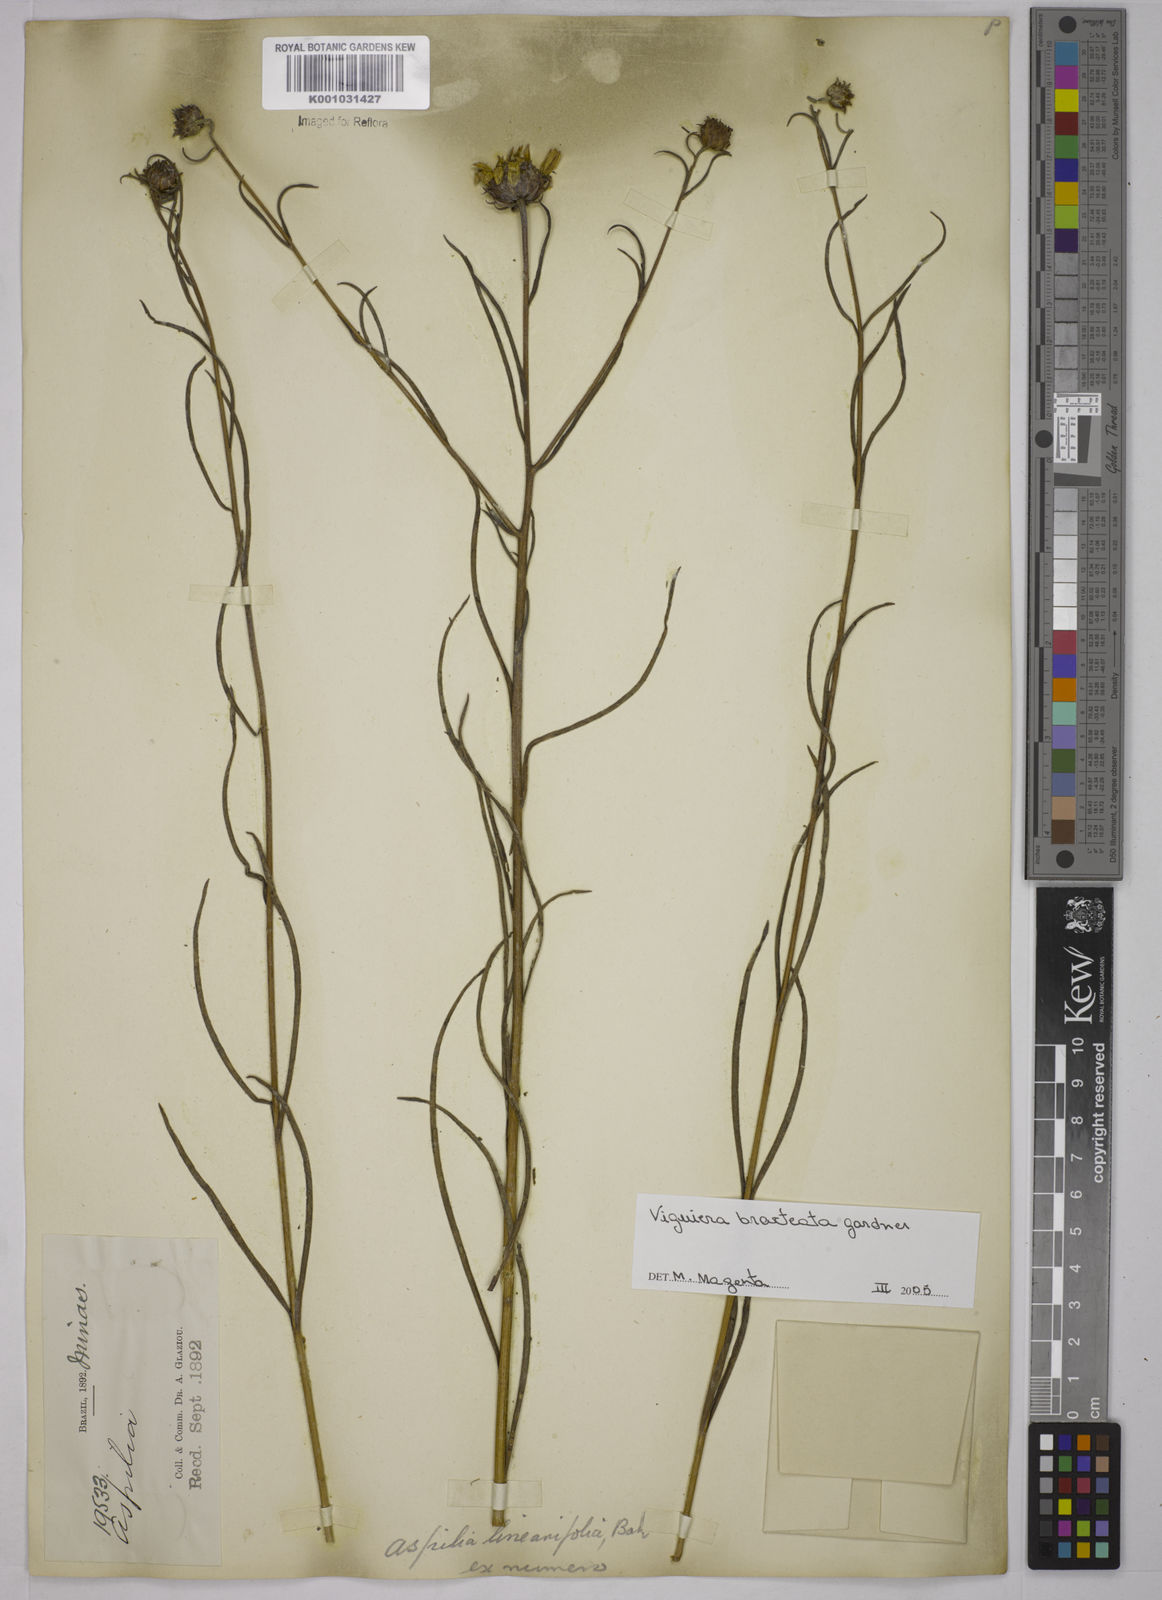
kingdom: Plantae
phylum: Tracheophyta
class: Magnoliopsida
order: Asterales
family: Asteraceae
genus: Aldama
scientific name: Aldama bracteata
